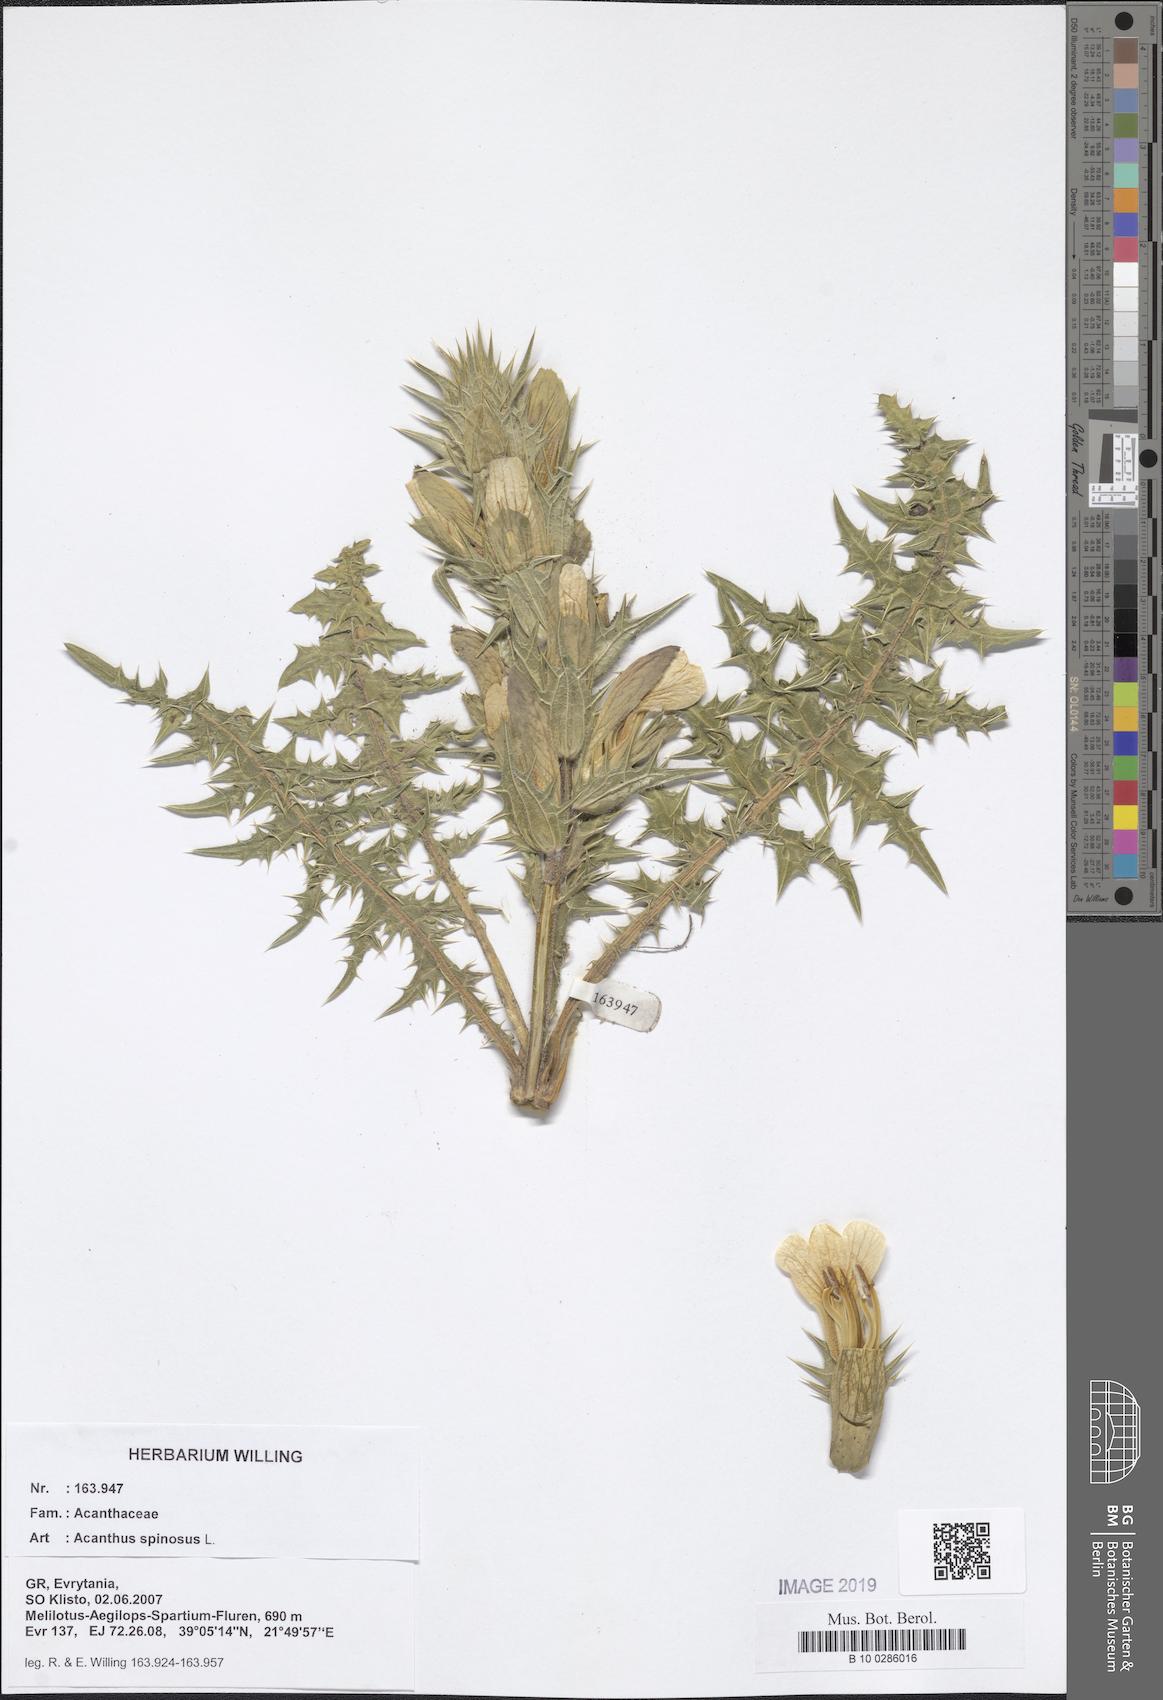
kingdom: Plantae
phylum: Tracheophyta
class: Magnoliopsida
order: Lamiales
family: Acanthaceae
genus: Acanthus
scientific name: Acanthus spinosus
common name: Spiny bear's-breech
